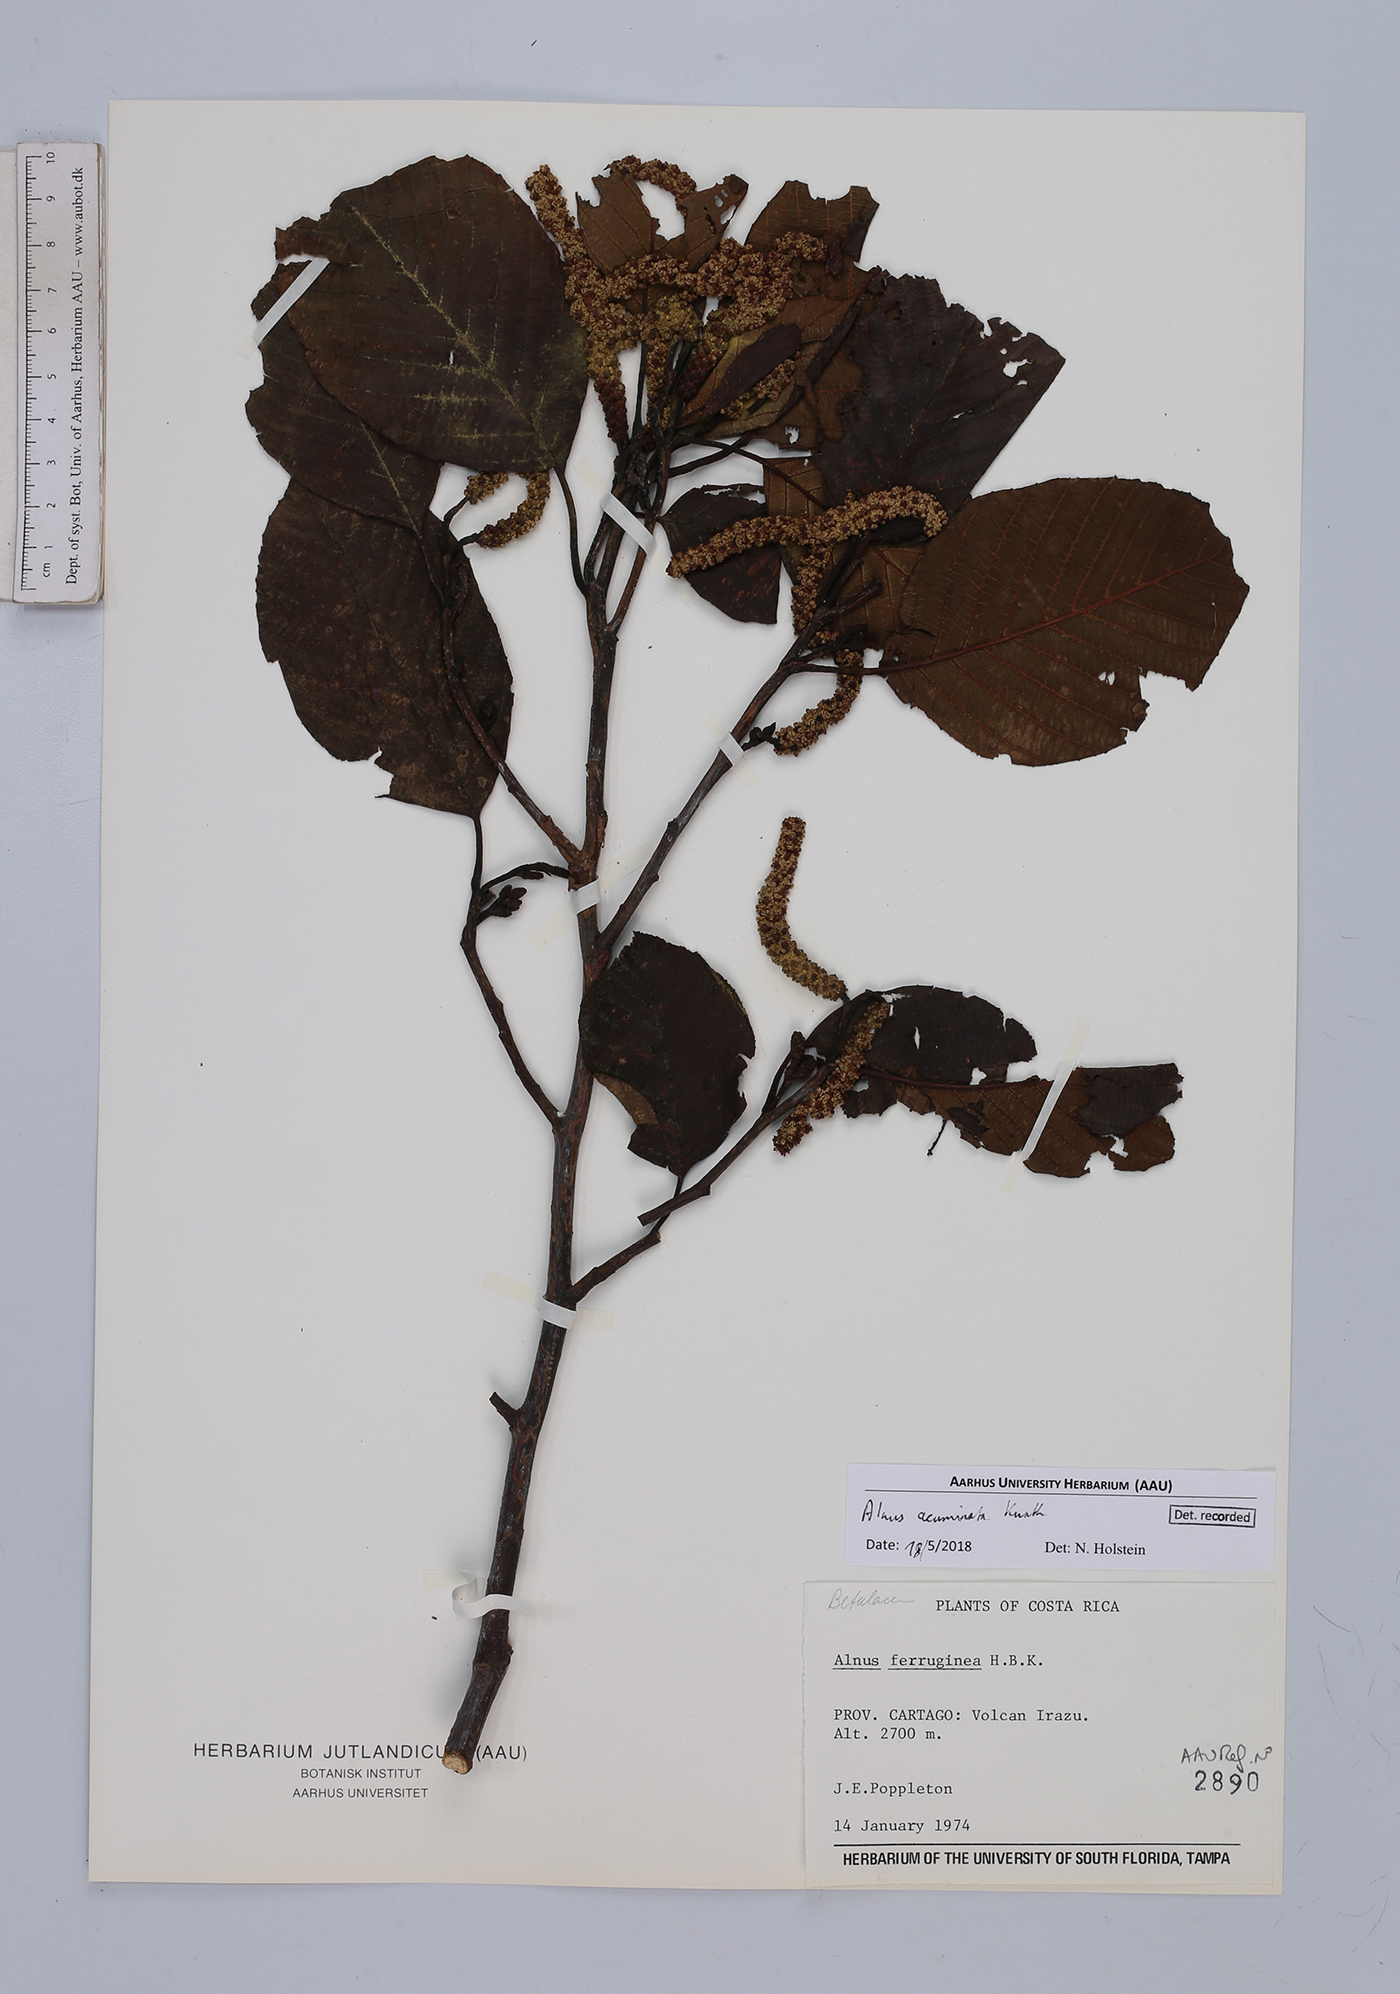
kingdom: Plantae
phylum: Tracheophyta
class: Magnoliopsida
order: Fagales
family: Betulaceae
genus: Alnus
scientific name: Alnus acuminata
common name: Alder
